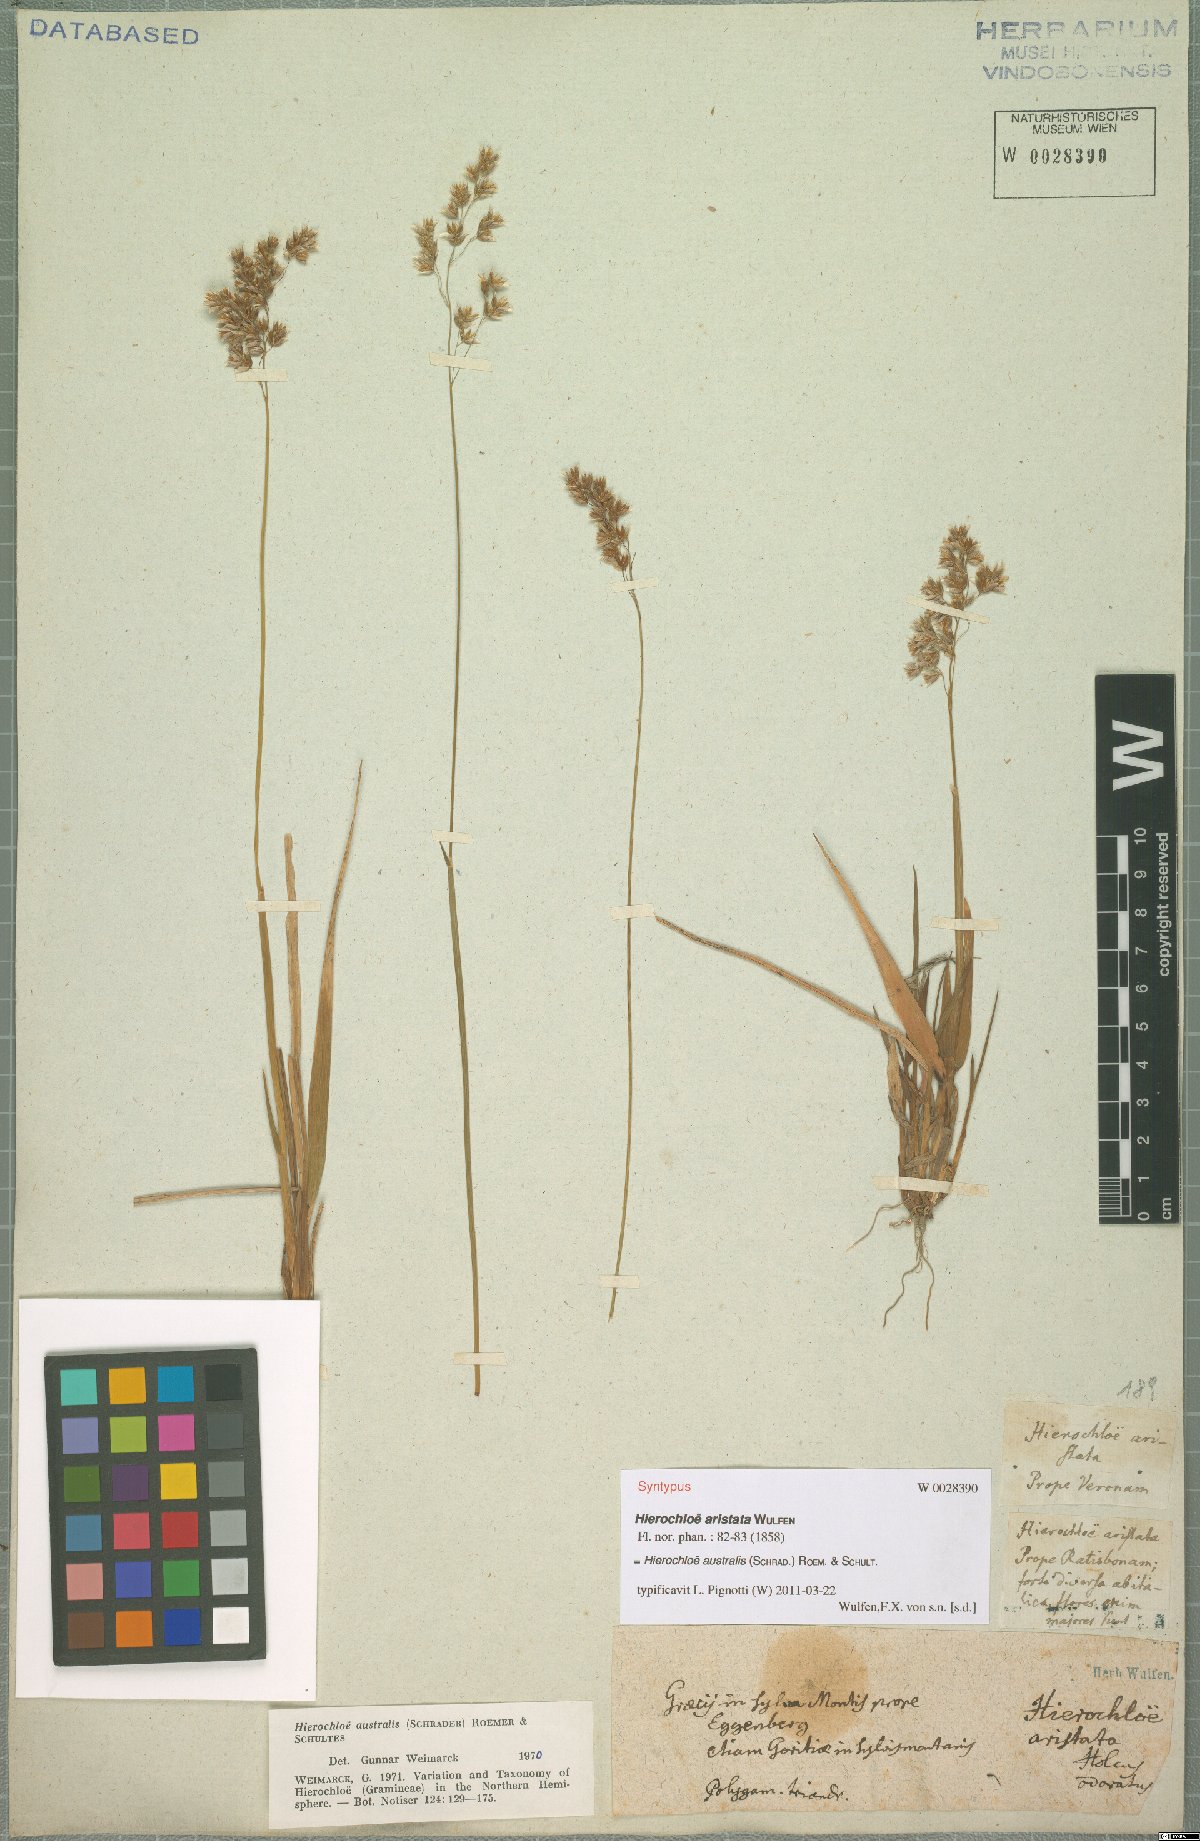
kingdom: Plantae
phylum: Tracheophyta
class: Liliopsida
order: Poales
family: Poaceae
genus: Anthoxanthum
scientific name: Anthoxanthum australe
